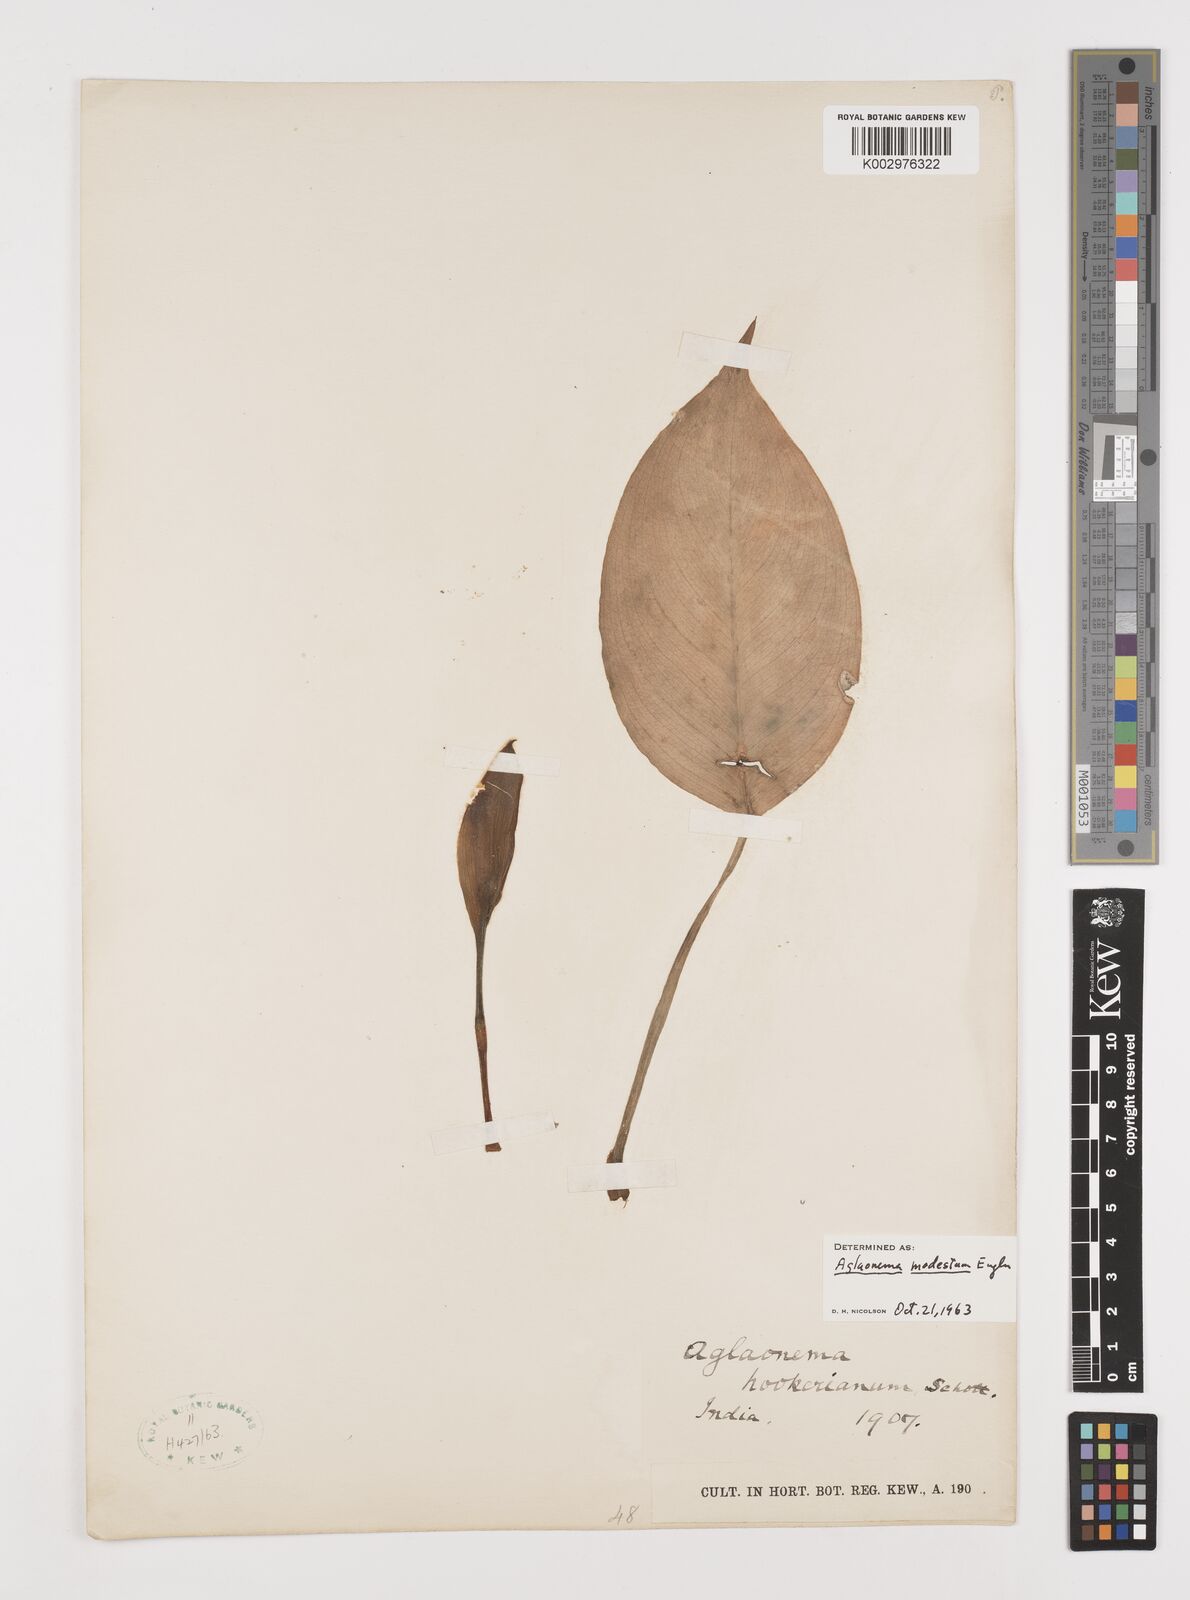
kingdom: Plantae
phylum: Tracheophyta
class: Liliopsida
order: Alismatales
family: Araceae
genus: Aglaonema
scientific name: Aglaonema modestum
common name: Chinese evergreen
